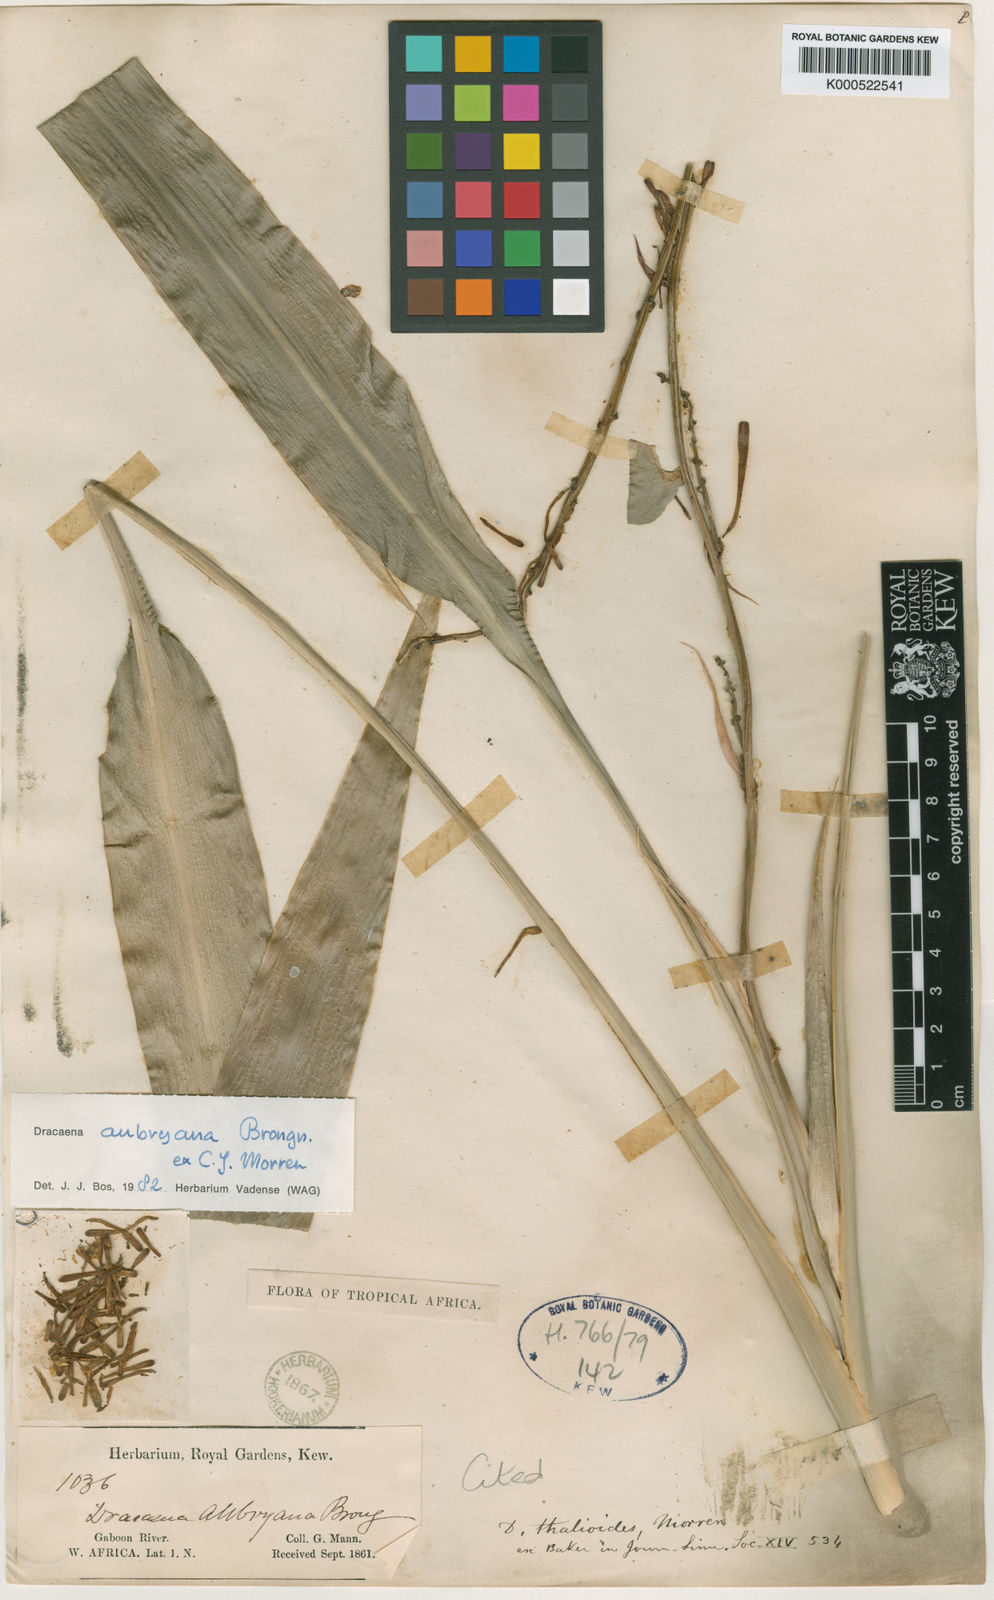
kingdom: Plantae
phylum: Tracheophyta
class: Liliopsida
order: Asparagales
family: Asparagaceae
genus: Dracaena
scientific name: Dracaena aubryana
